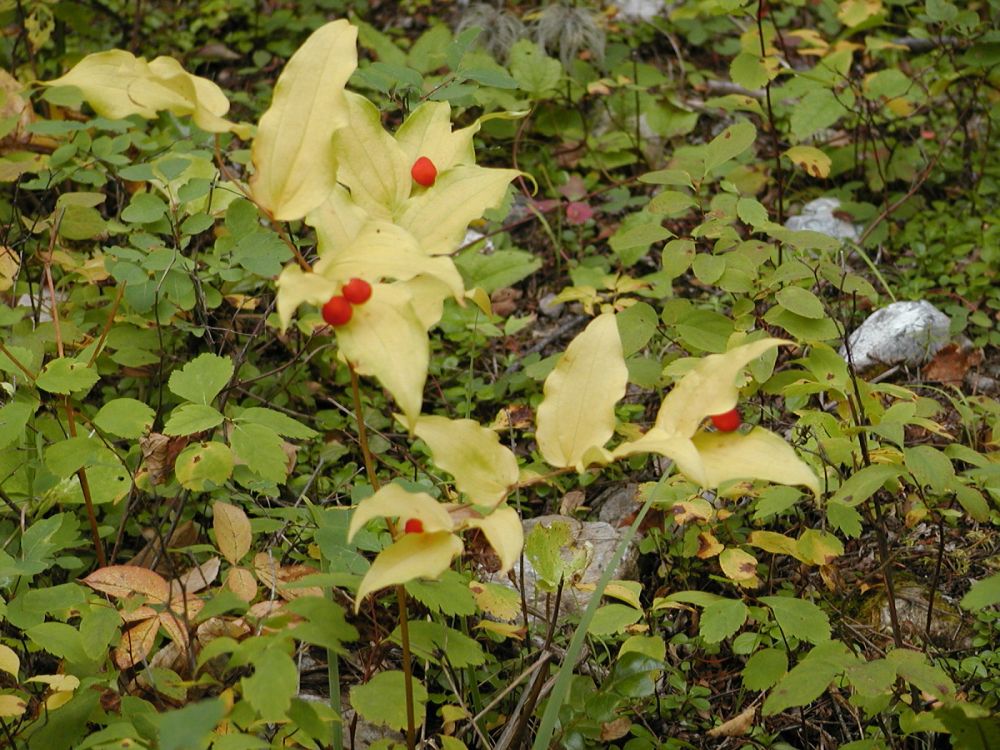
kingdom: Plantae
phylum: Tracheophyta
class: Liliopsida
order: Liliales
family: Liliaceae
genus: Prosartes
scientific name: Prosartes hookeri
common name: Fairy-bells
